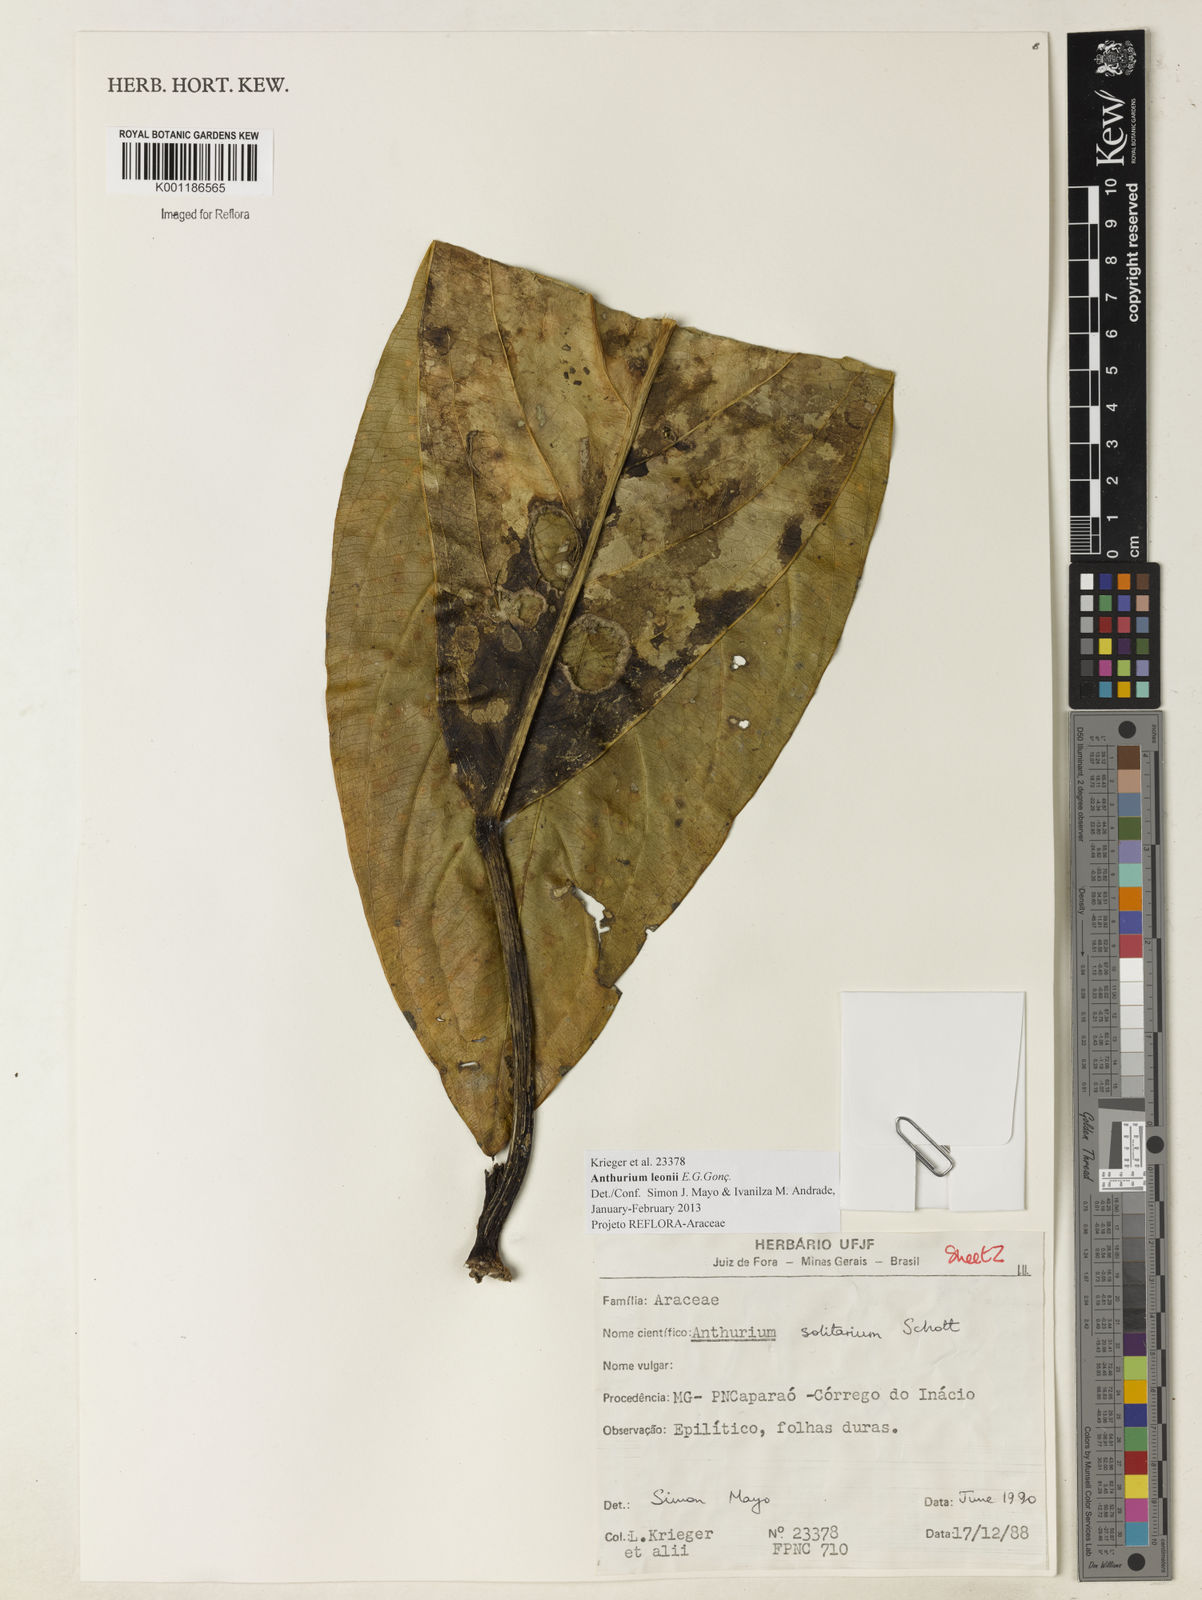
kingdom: Plantae
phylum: Tracheophyta
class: Liliopsida
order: Alismatales
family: Araceae
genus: Anthurium
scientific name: Anthurium leonii
